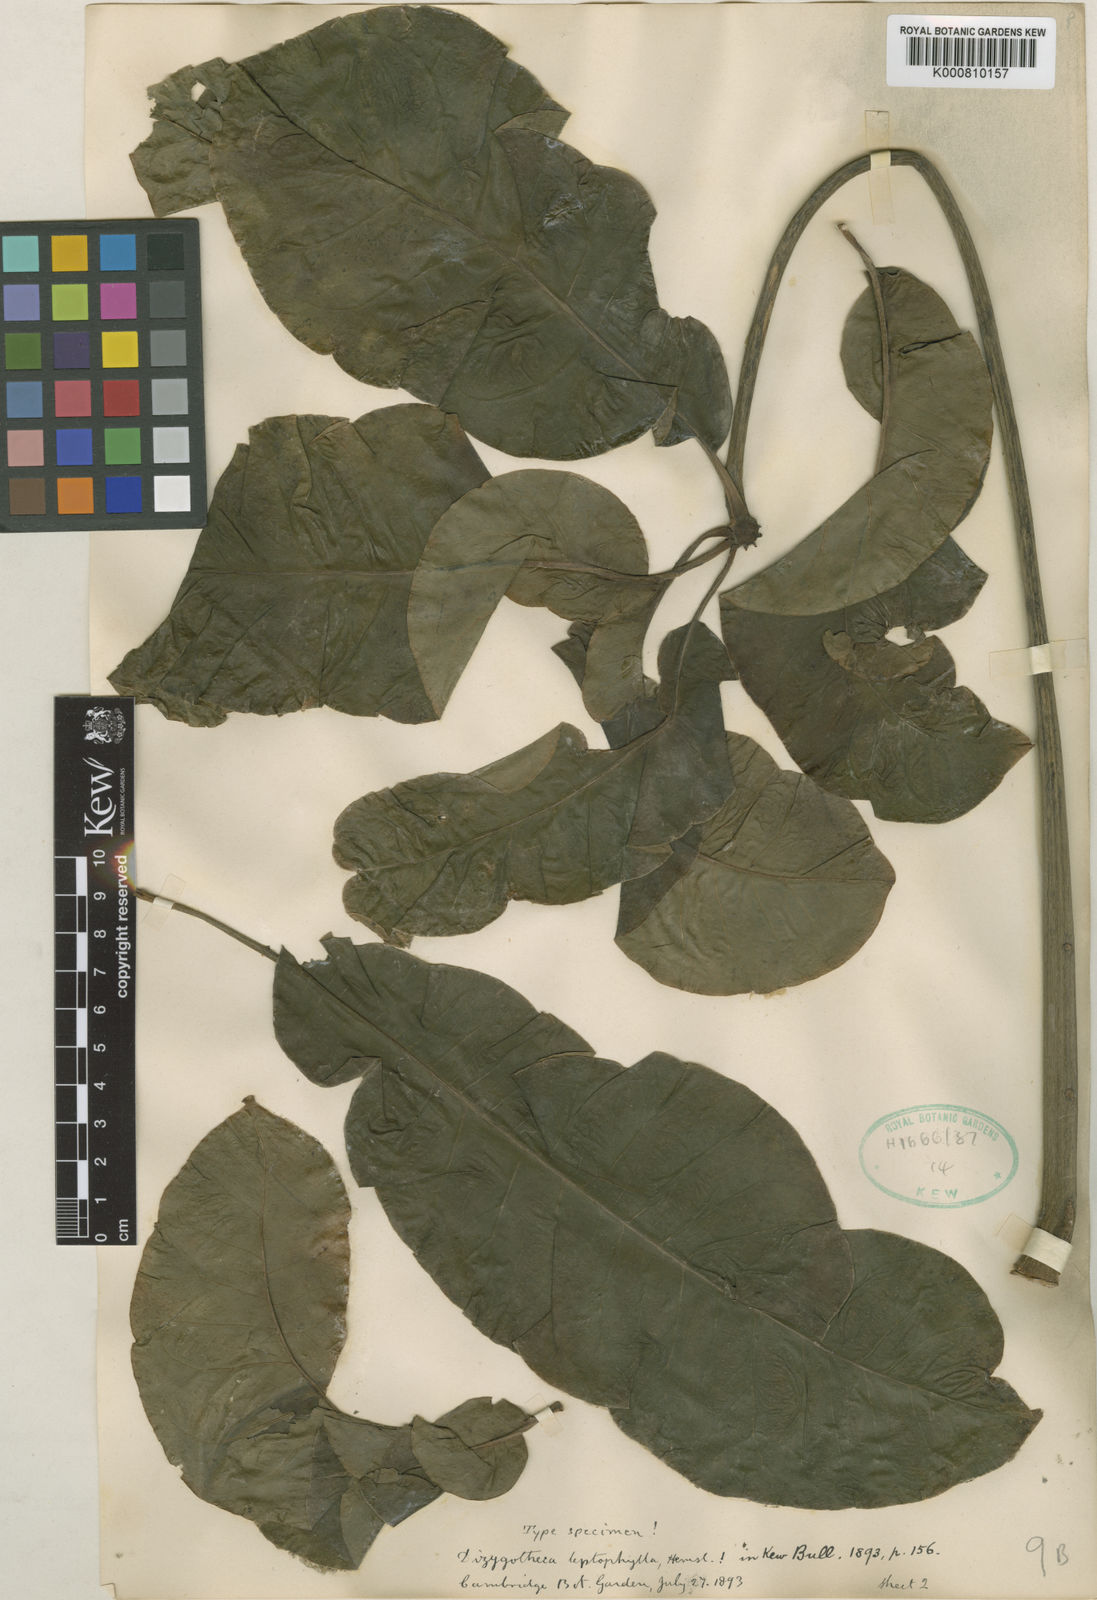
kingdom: Plantae
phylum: Tracheophyta
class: Magnoliopsida
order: Apiales
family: Araliaceae
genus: Plerandra
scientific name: Plerandra leptophylla
